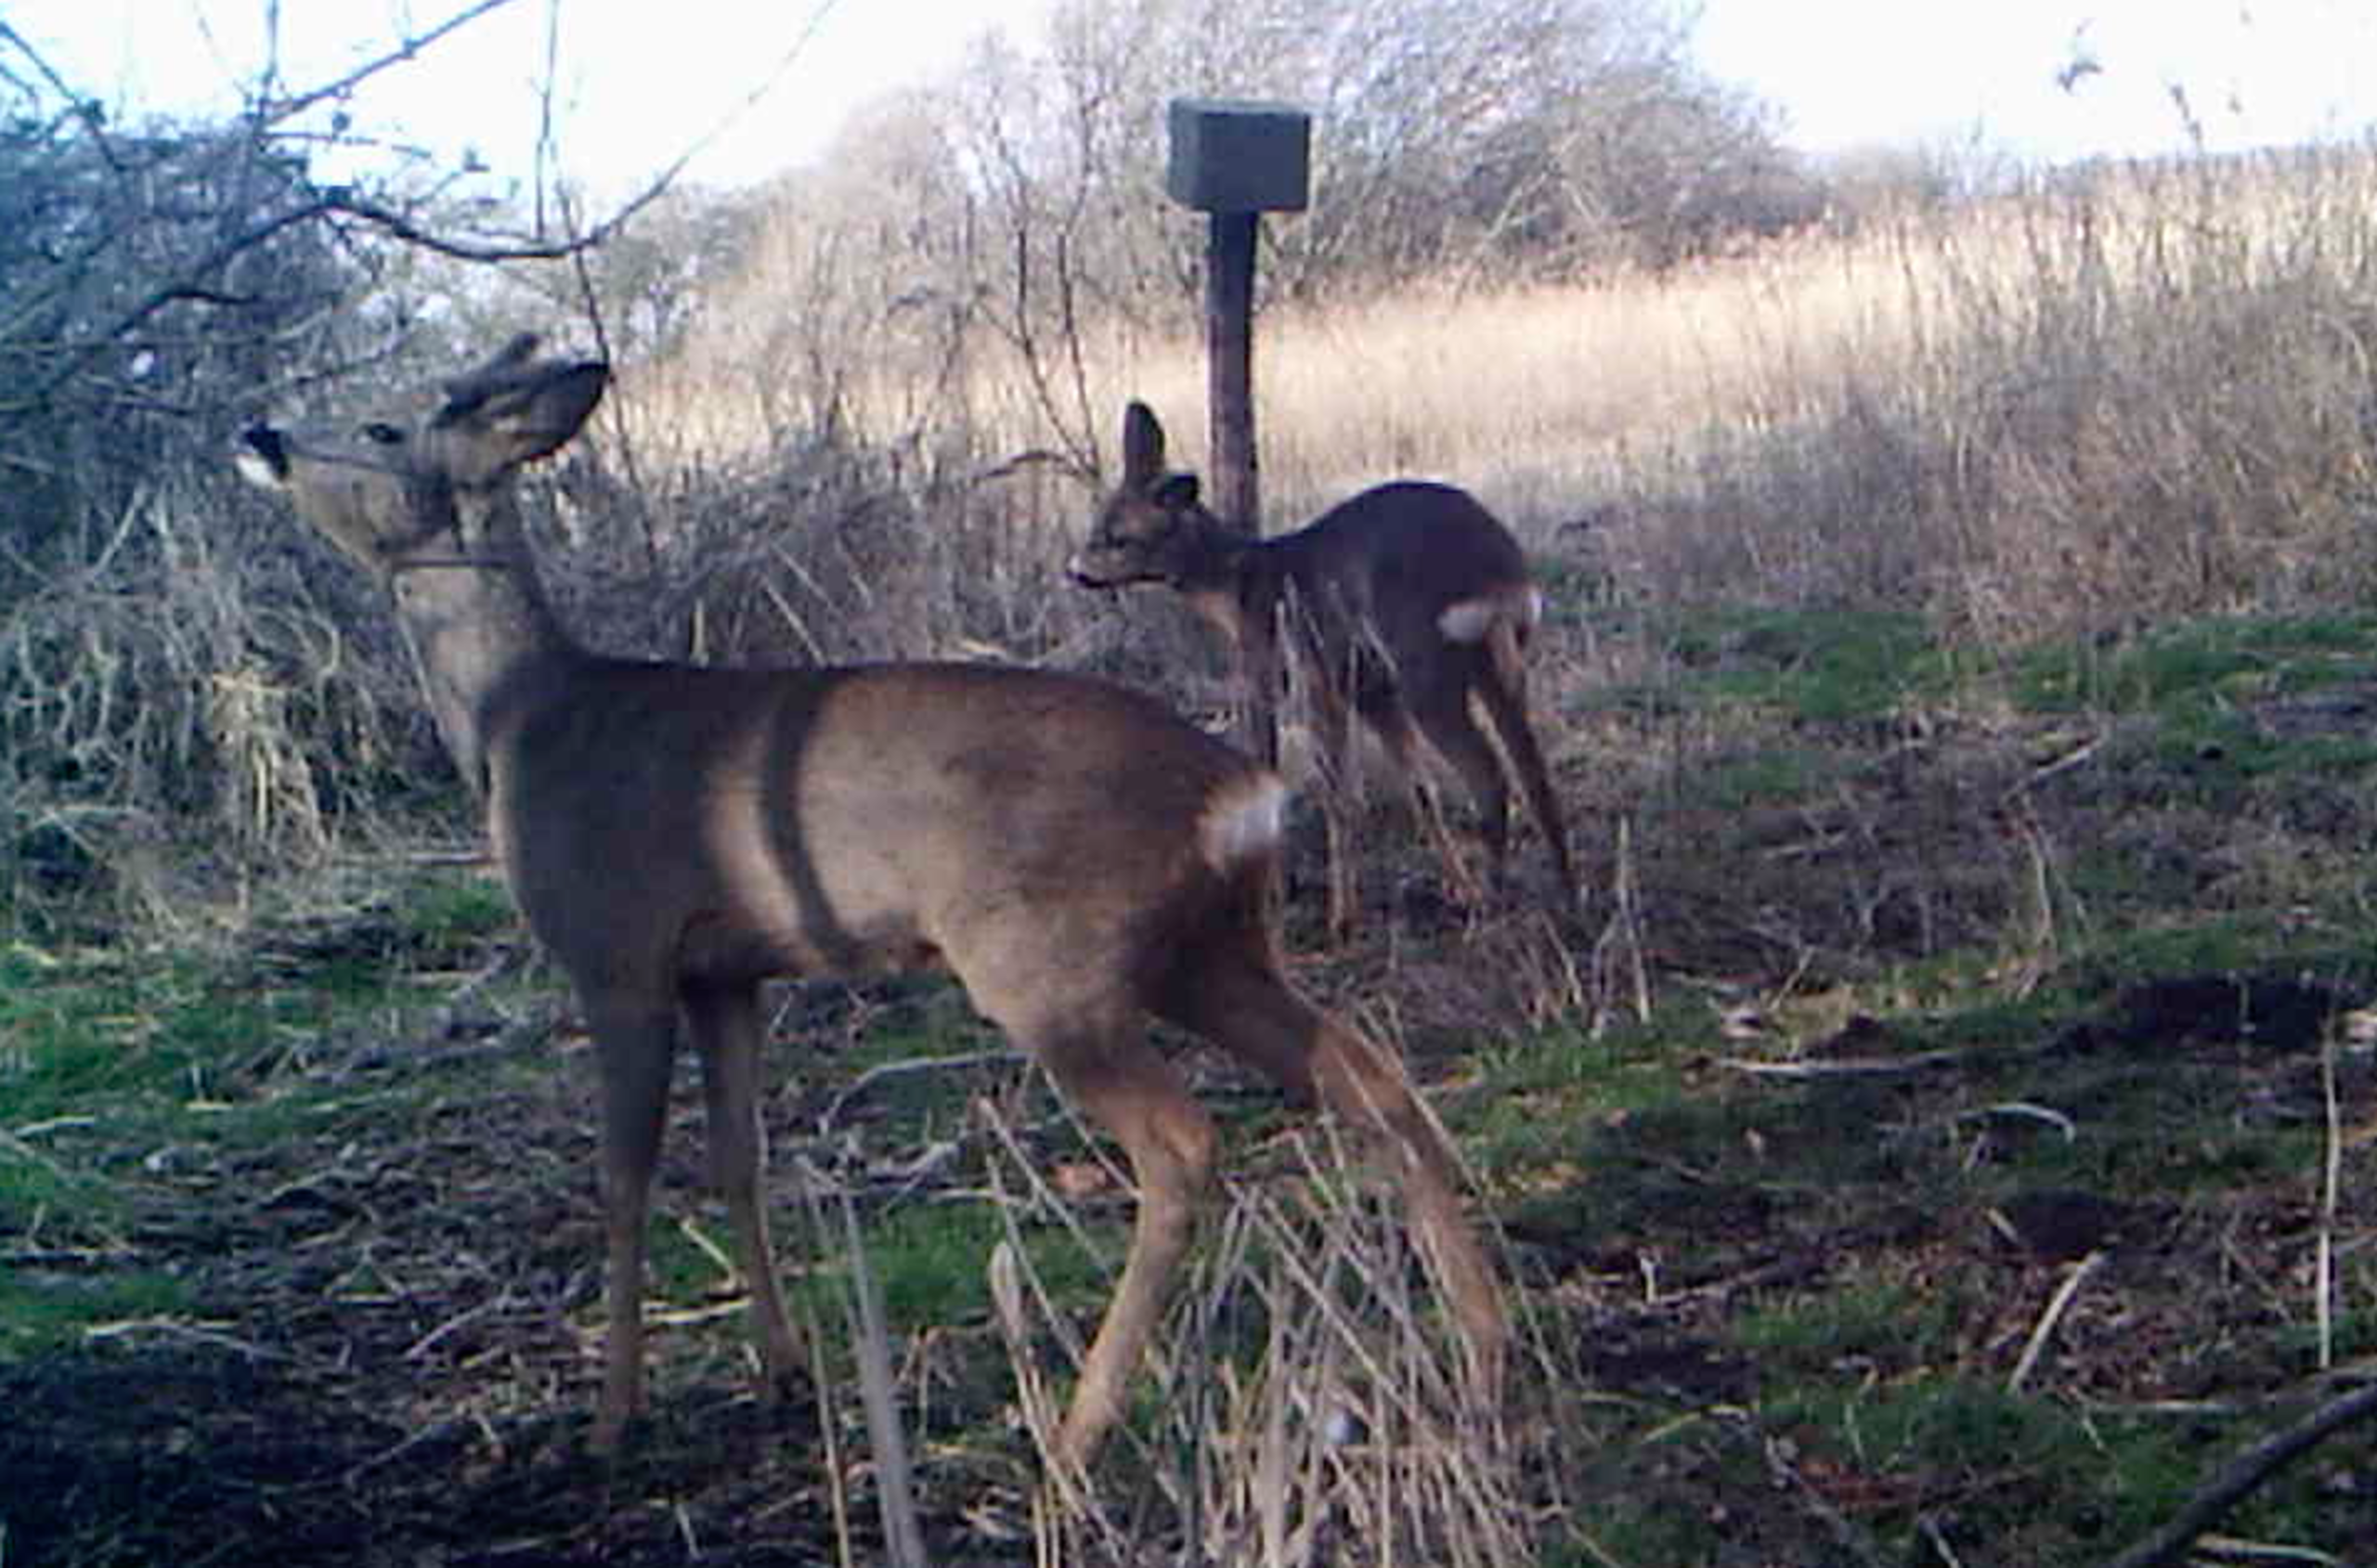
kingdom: Animalia
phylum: Chordata
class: Mammalia
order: Artiodactyla
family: Cervidae
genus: Capreolus
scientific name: Capreolus capreolus
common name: Rådyr
